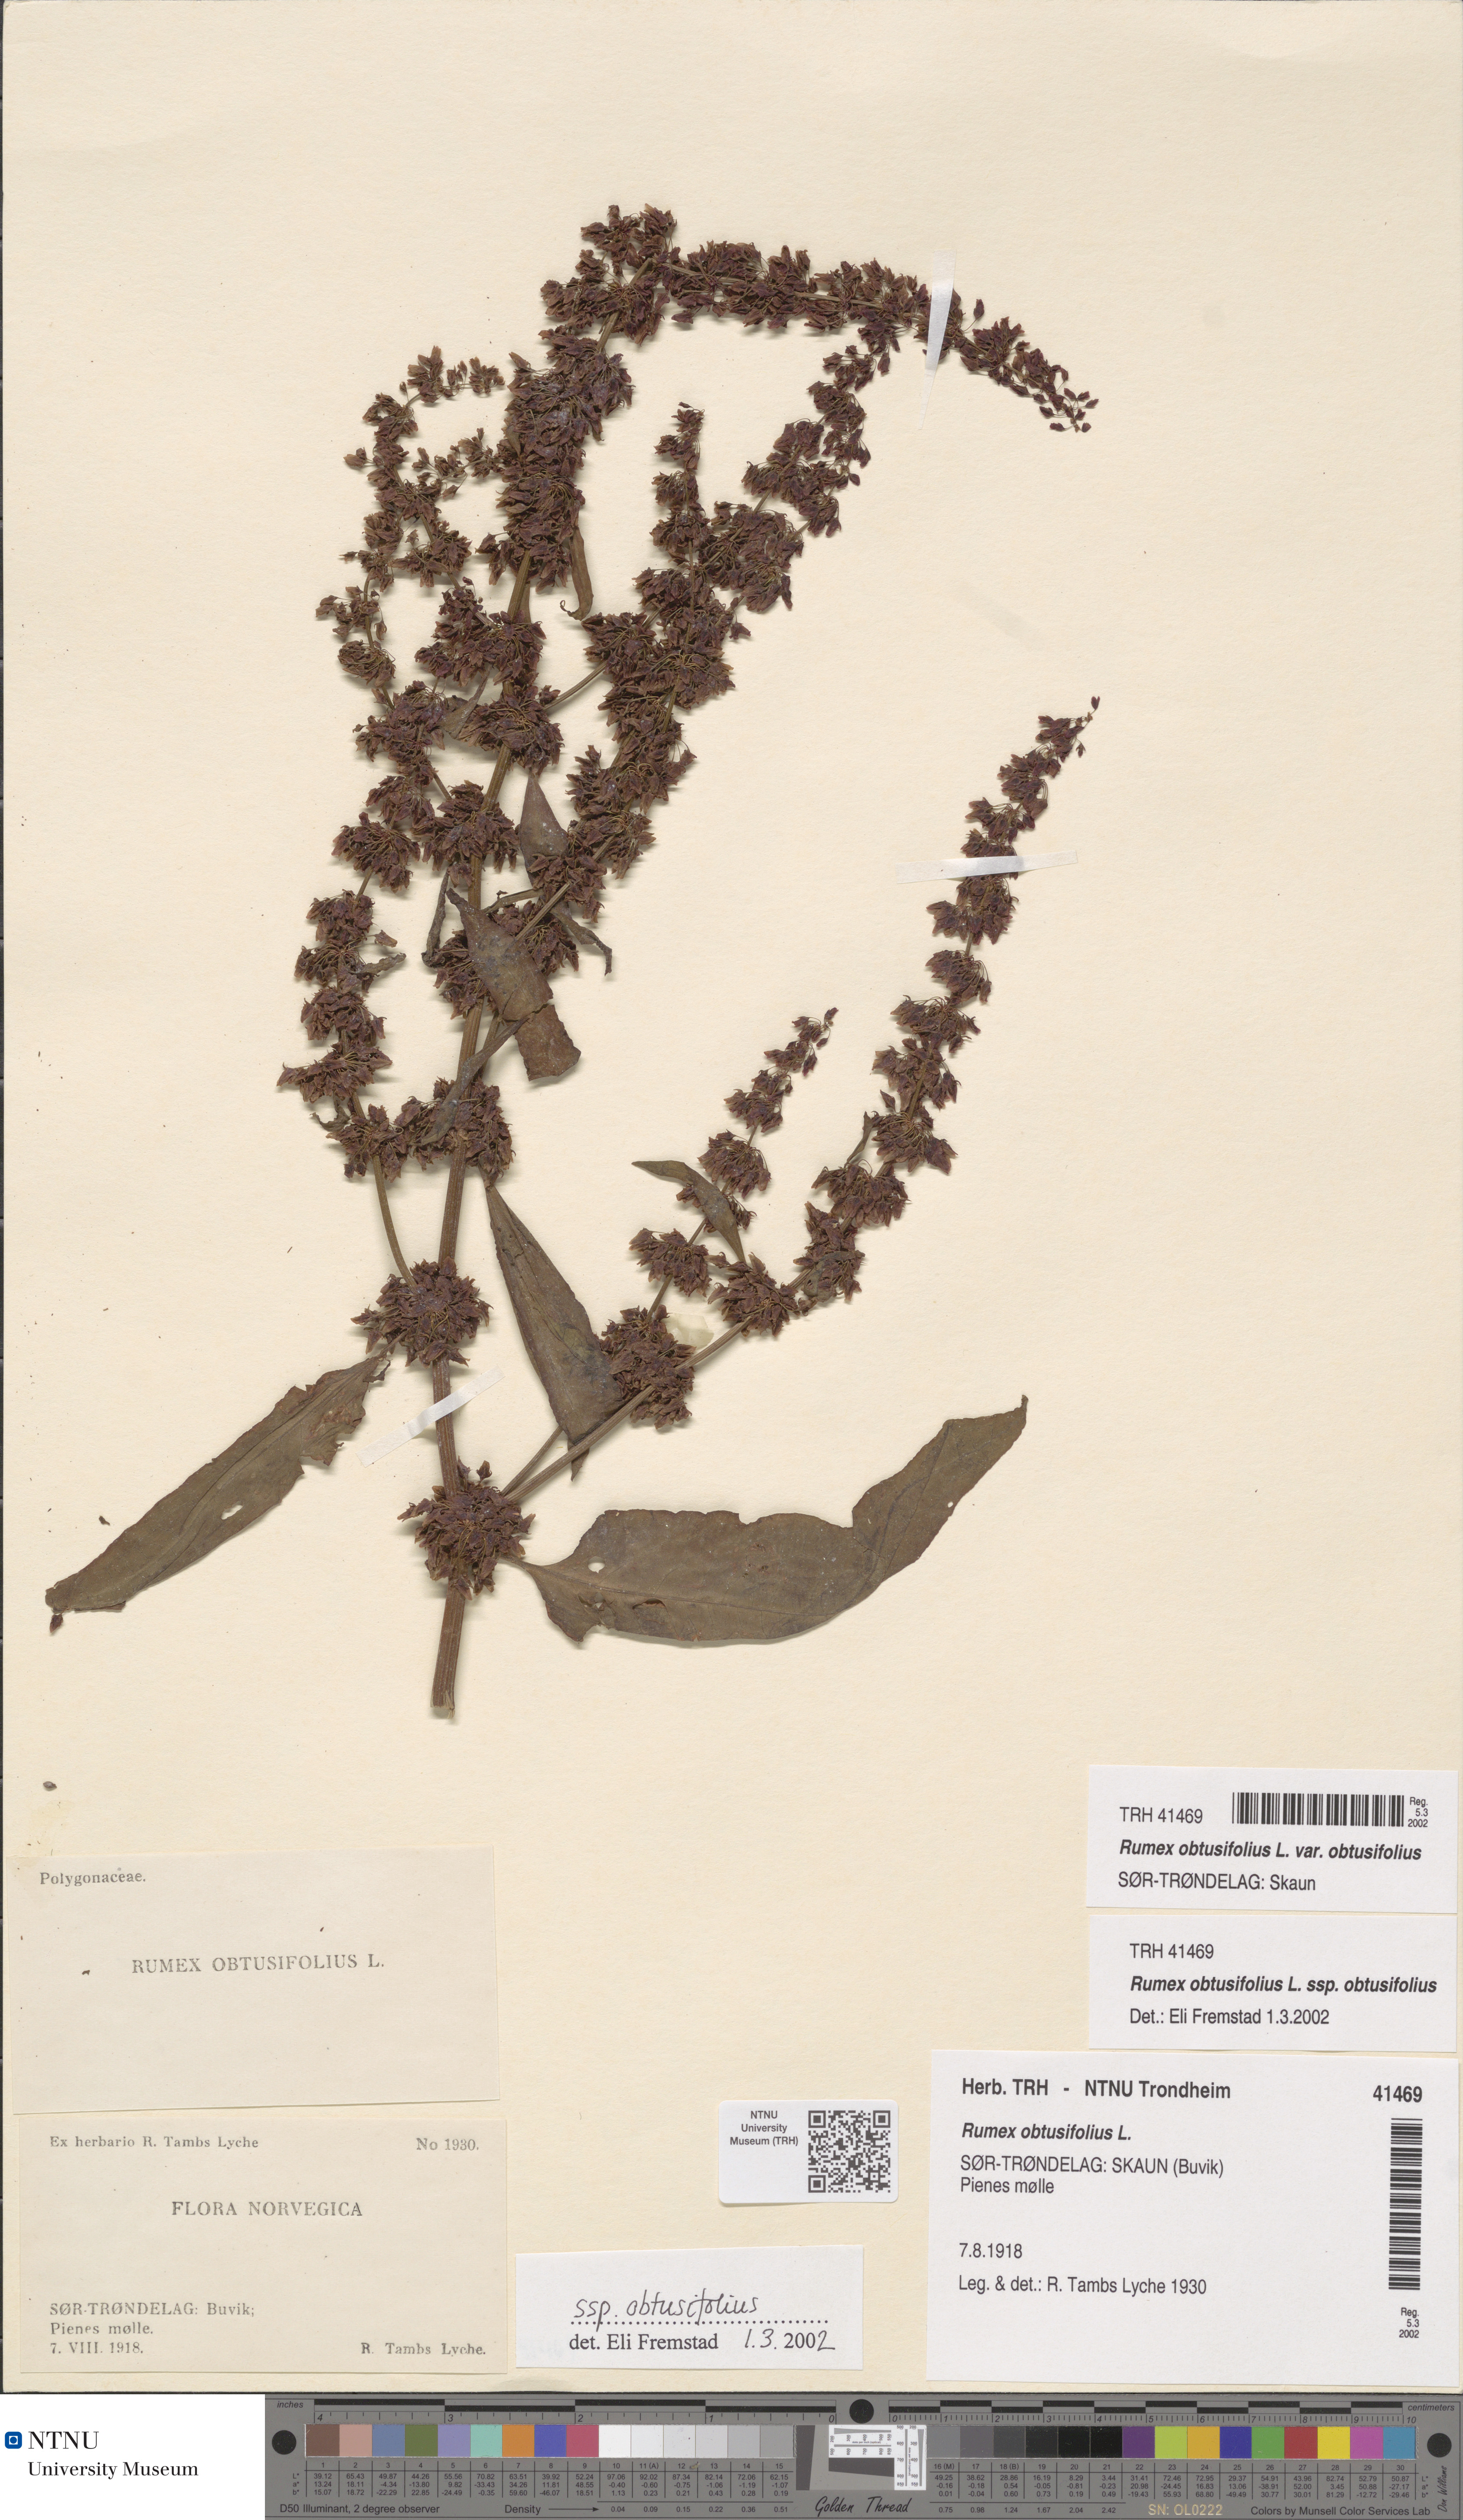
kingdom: Plantae
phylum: Tracheophyta
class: Magnoliopsida
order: Caryophyllales
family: Polygonaceae
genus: Rumex
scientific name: Rumex obtusifolius
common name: Bitter dock
